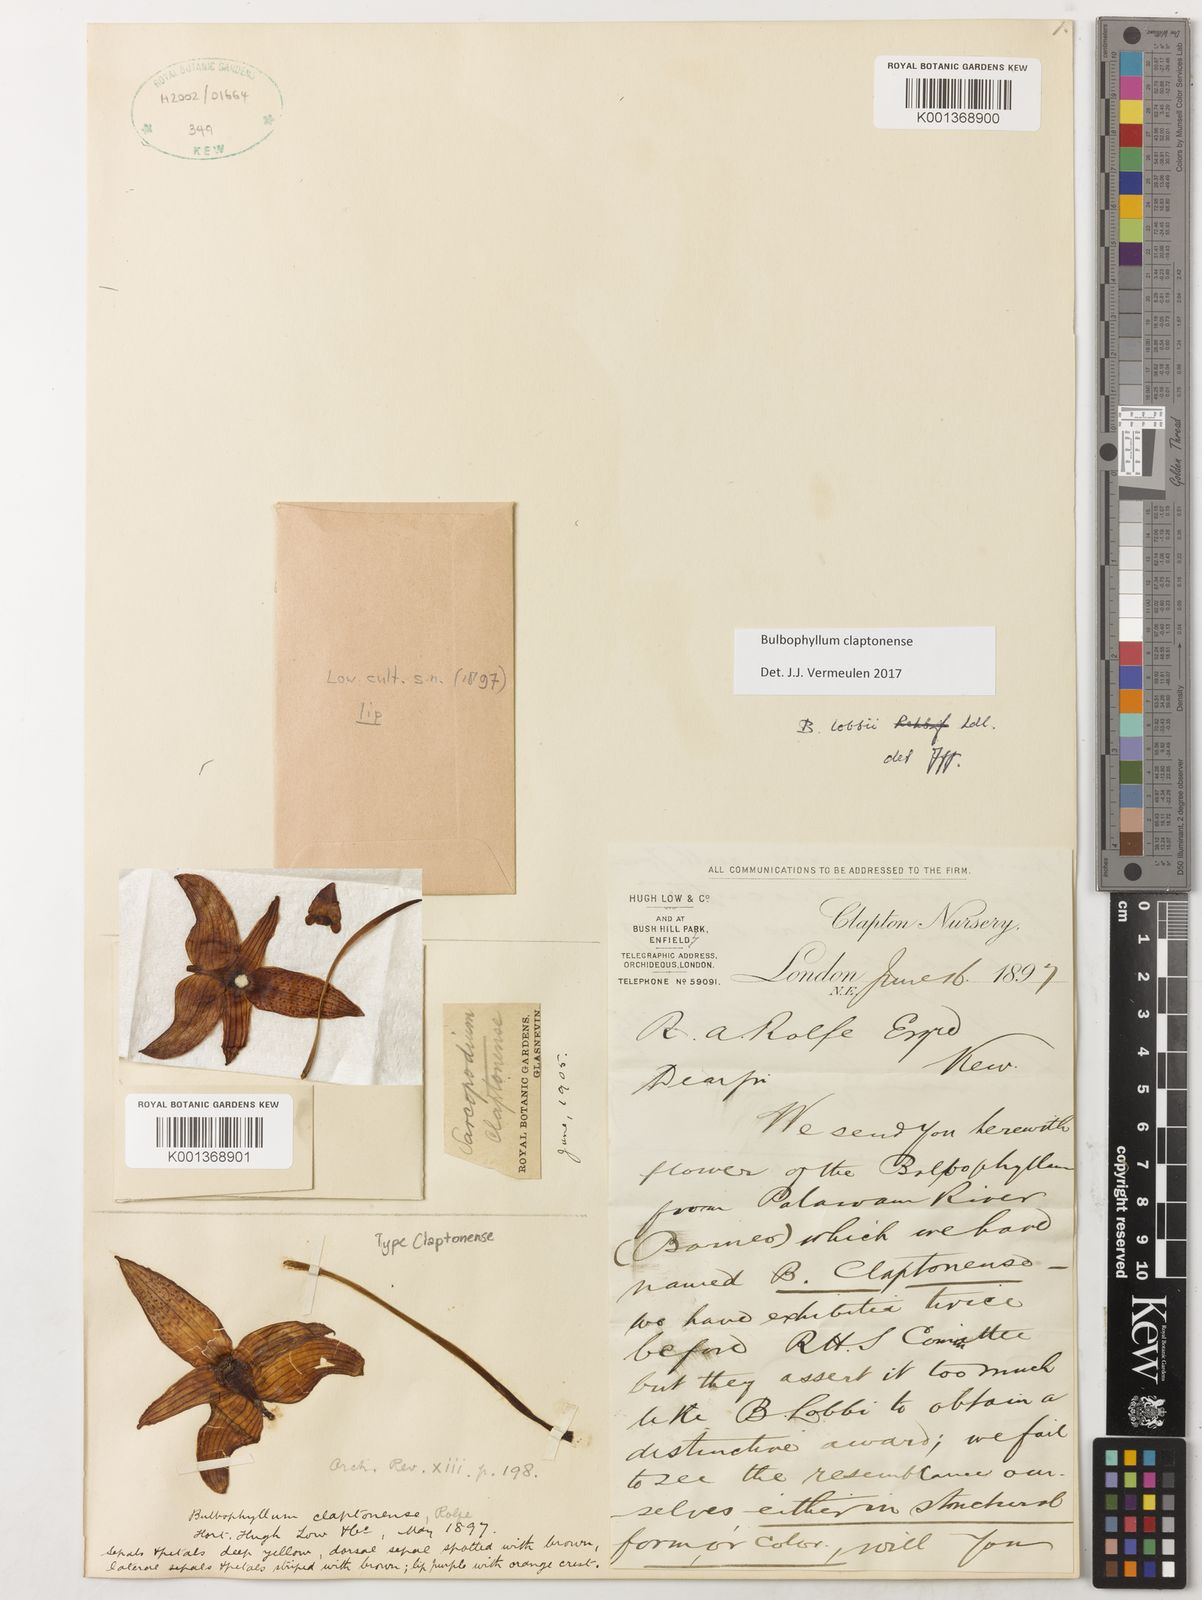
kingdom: Plantae
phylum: Tracheophyta
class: Liliopsida
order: Asparagales
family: Orchidaceae
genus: Bulbophyllum
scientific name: Bulbophyllum claptonense
